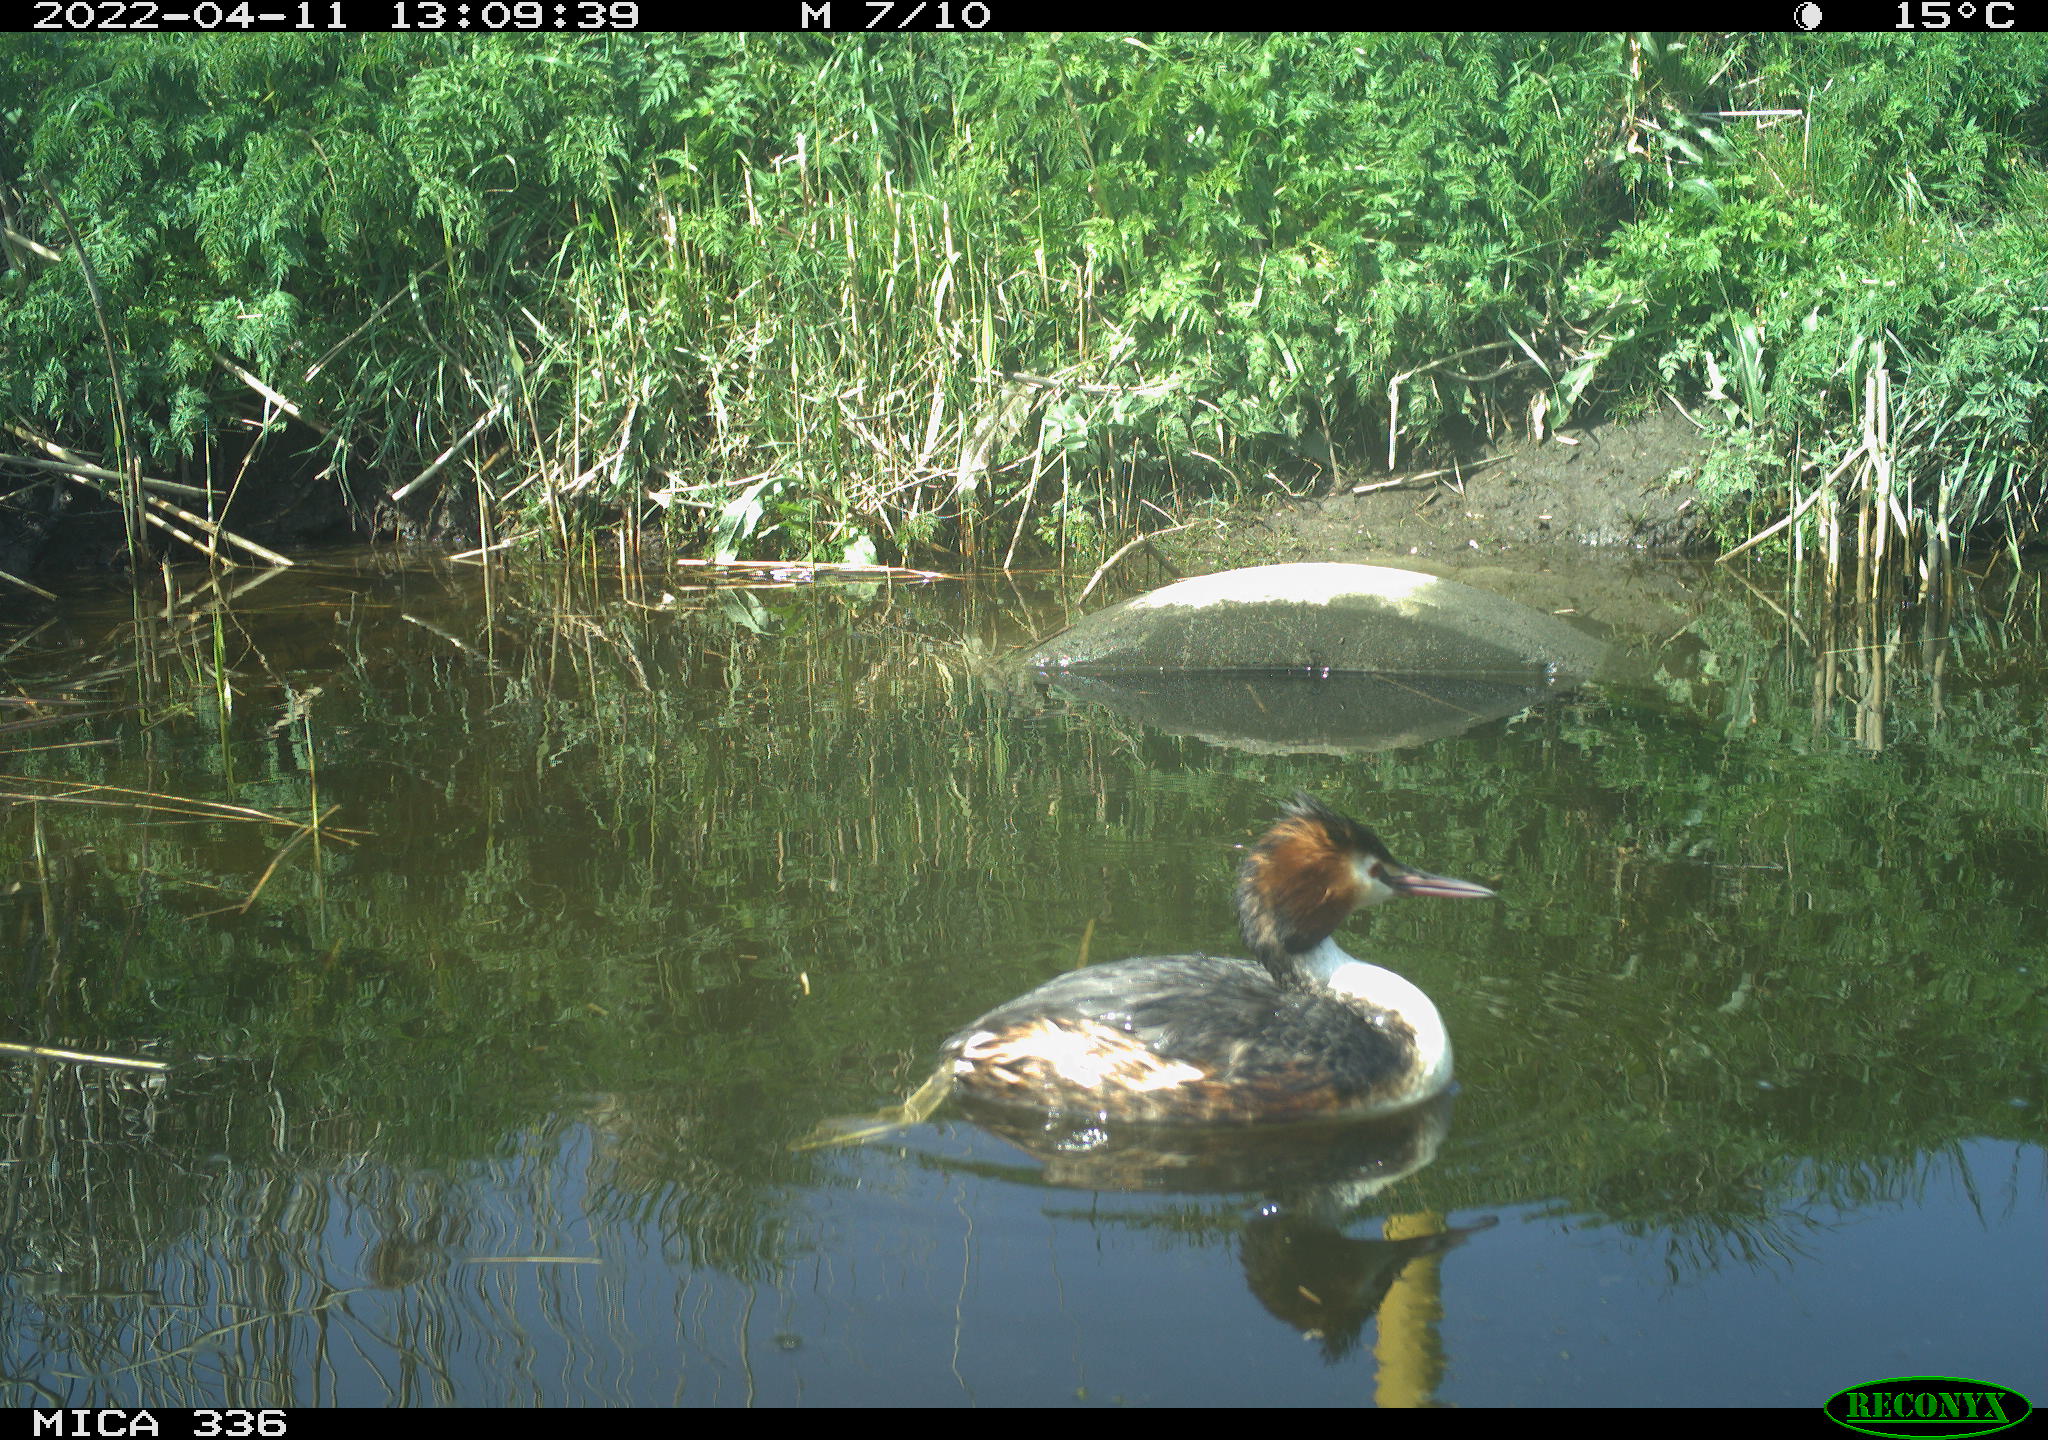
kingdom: Animalia
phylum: Chordata
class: Aves
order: Podicipediformes
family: Podicipedidae
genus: Podiceps
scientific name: Podiceps cristatus
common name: Great crested grebe
